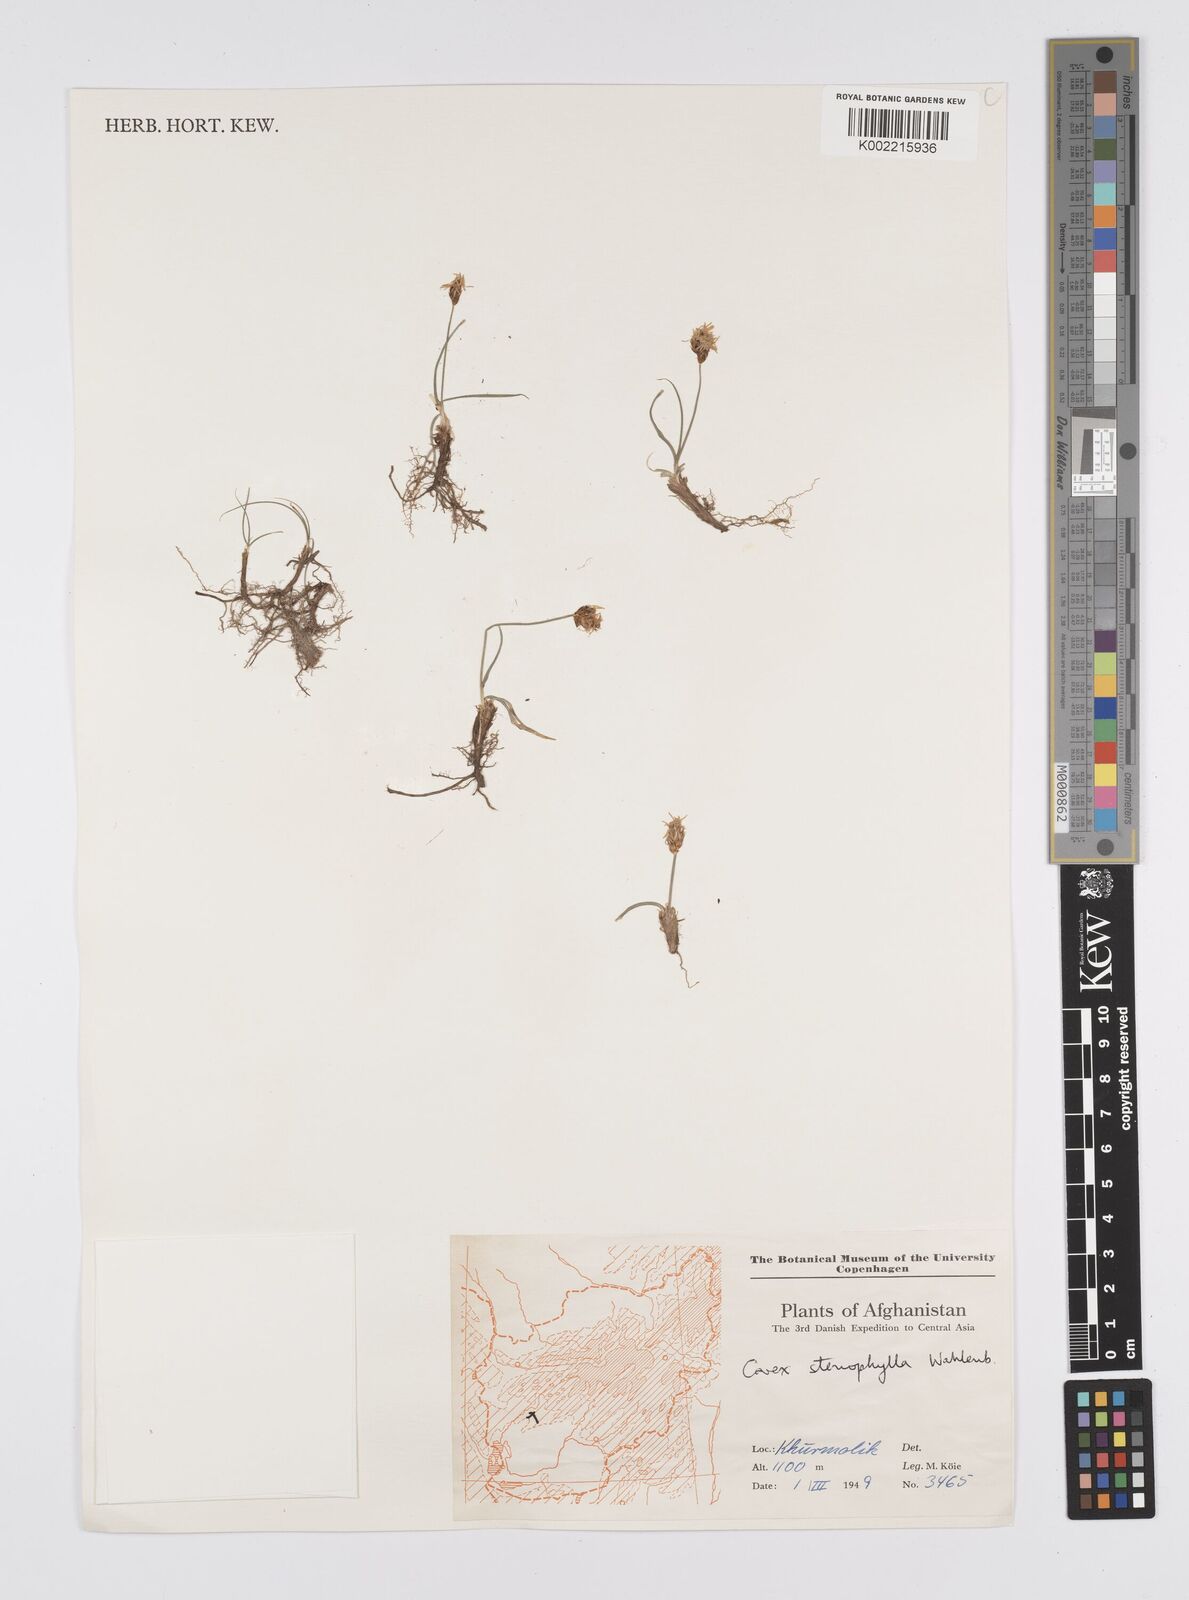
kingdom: Plantae
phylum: Tracheophyta
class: Liliopsida
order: Poales
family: Cyperaceae
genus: Carex
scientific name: Carex stenophylla
